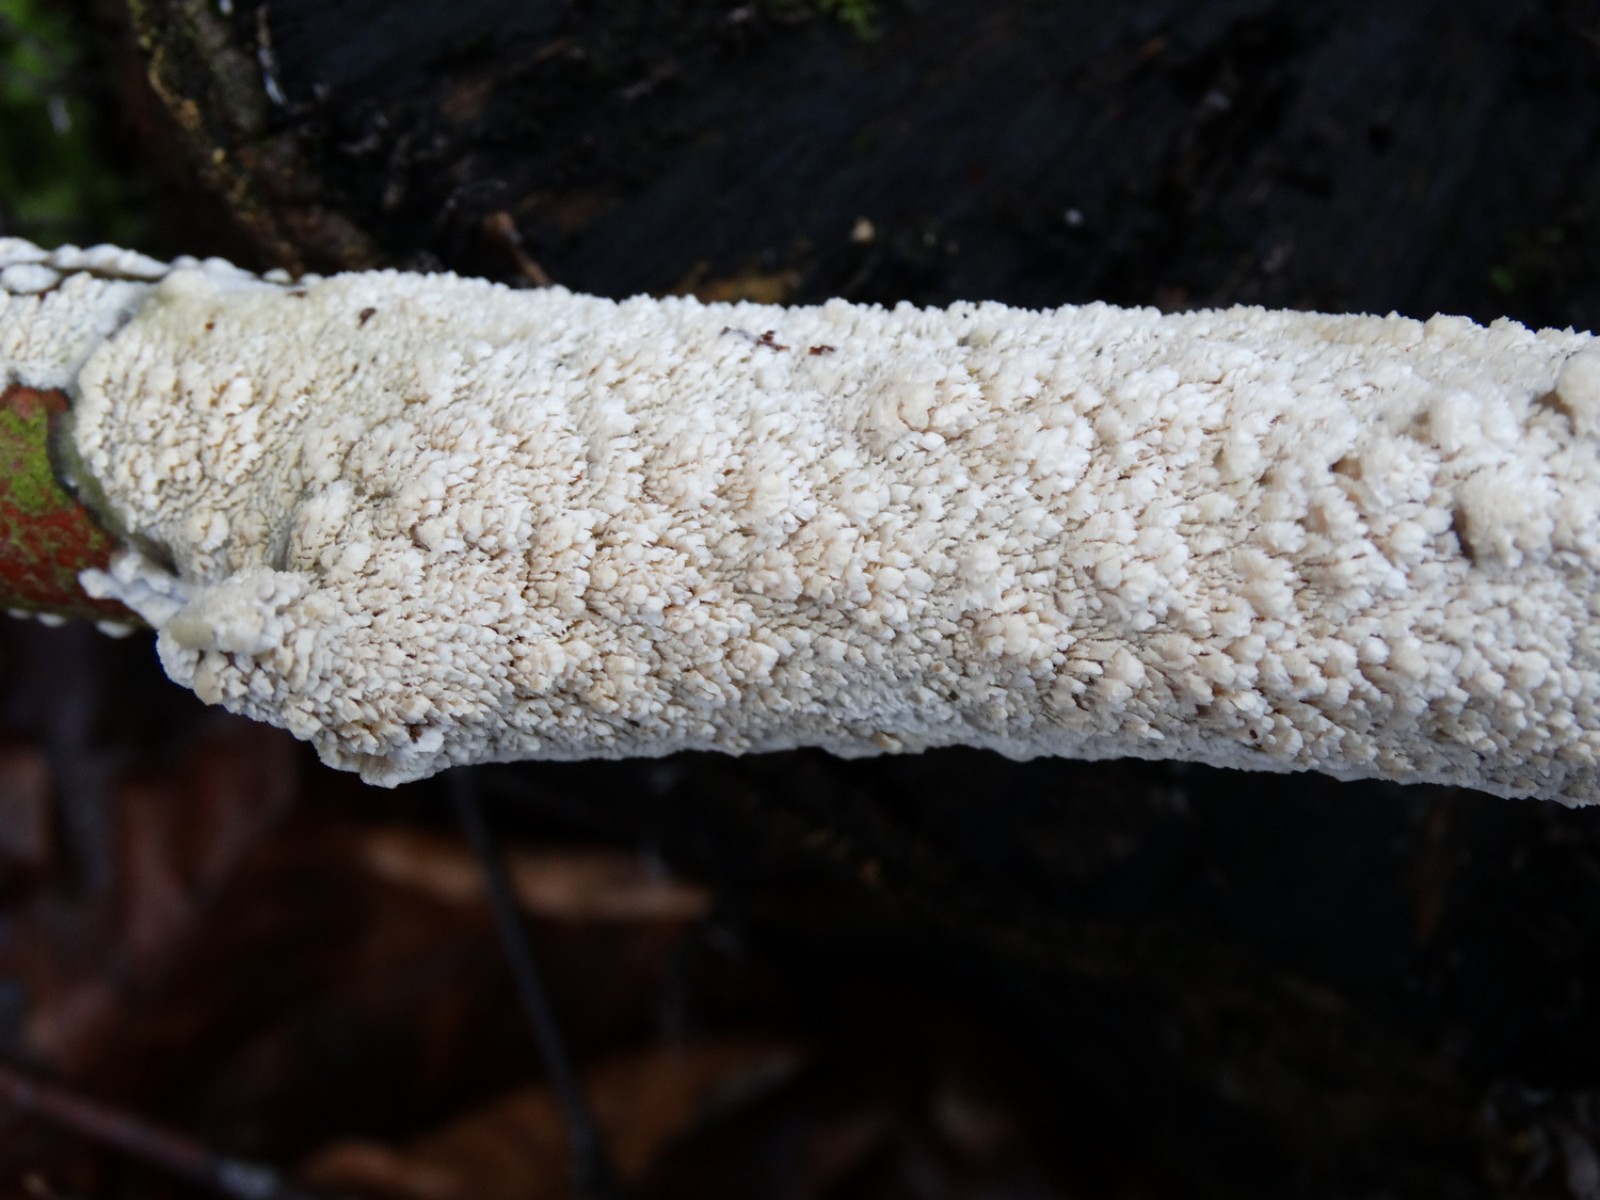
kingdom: Fungi
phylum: Basidiomycota
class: Agaricomycetes
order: Hymenochaetales
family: Schizoporaceae
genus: Schizopora
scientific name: Schizopora paradoxa
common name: hvid tandsvamp
